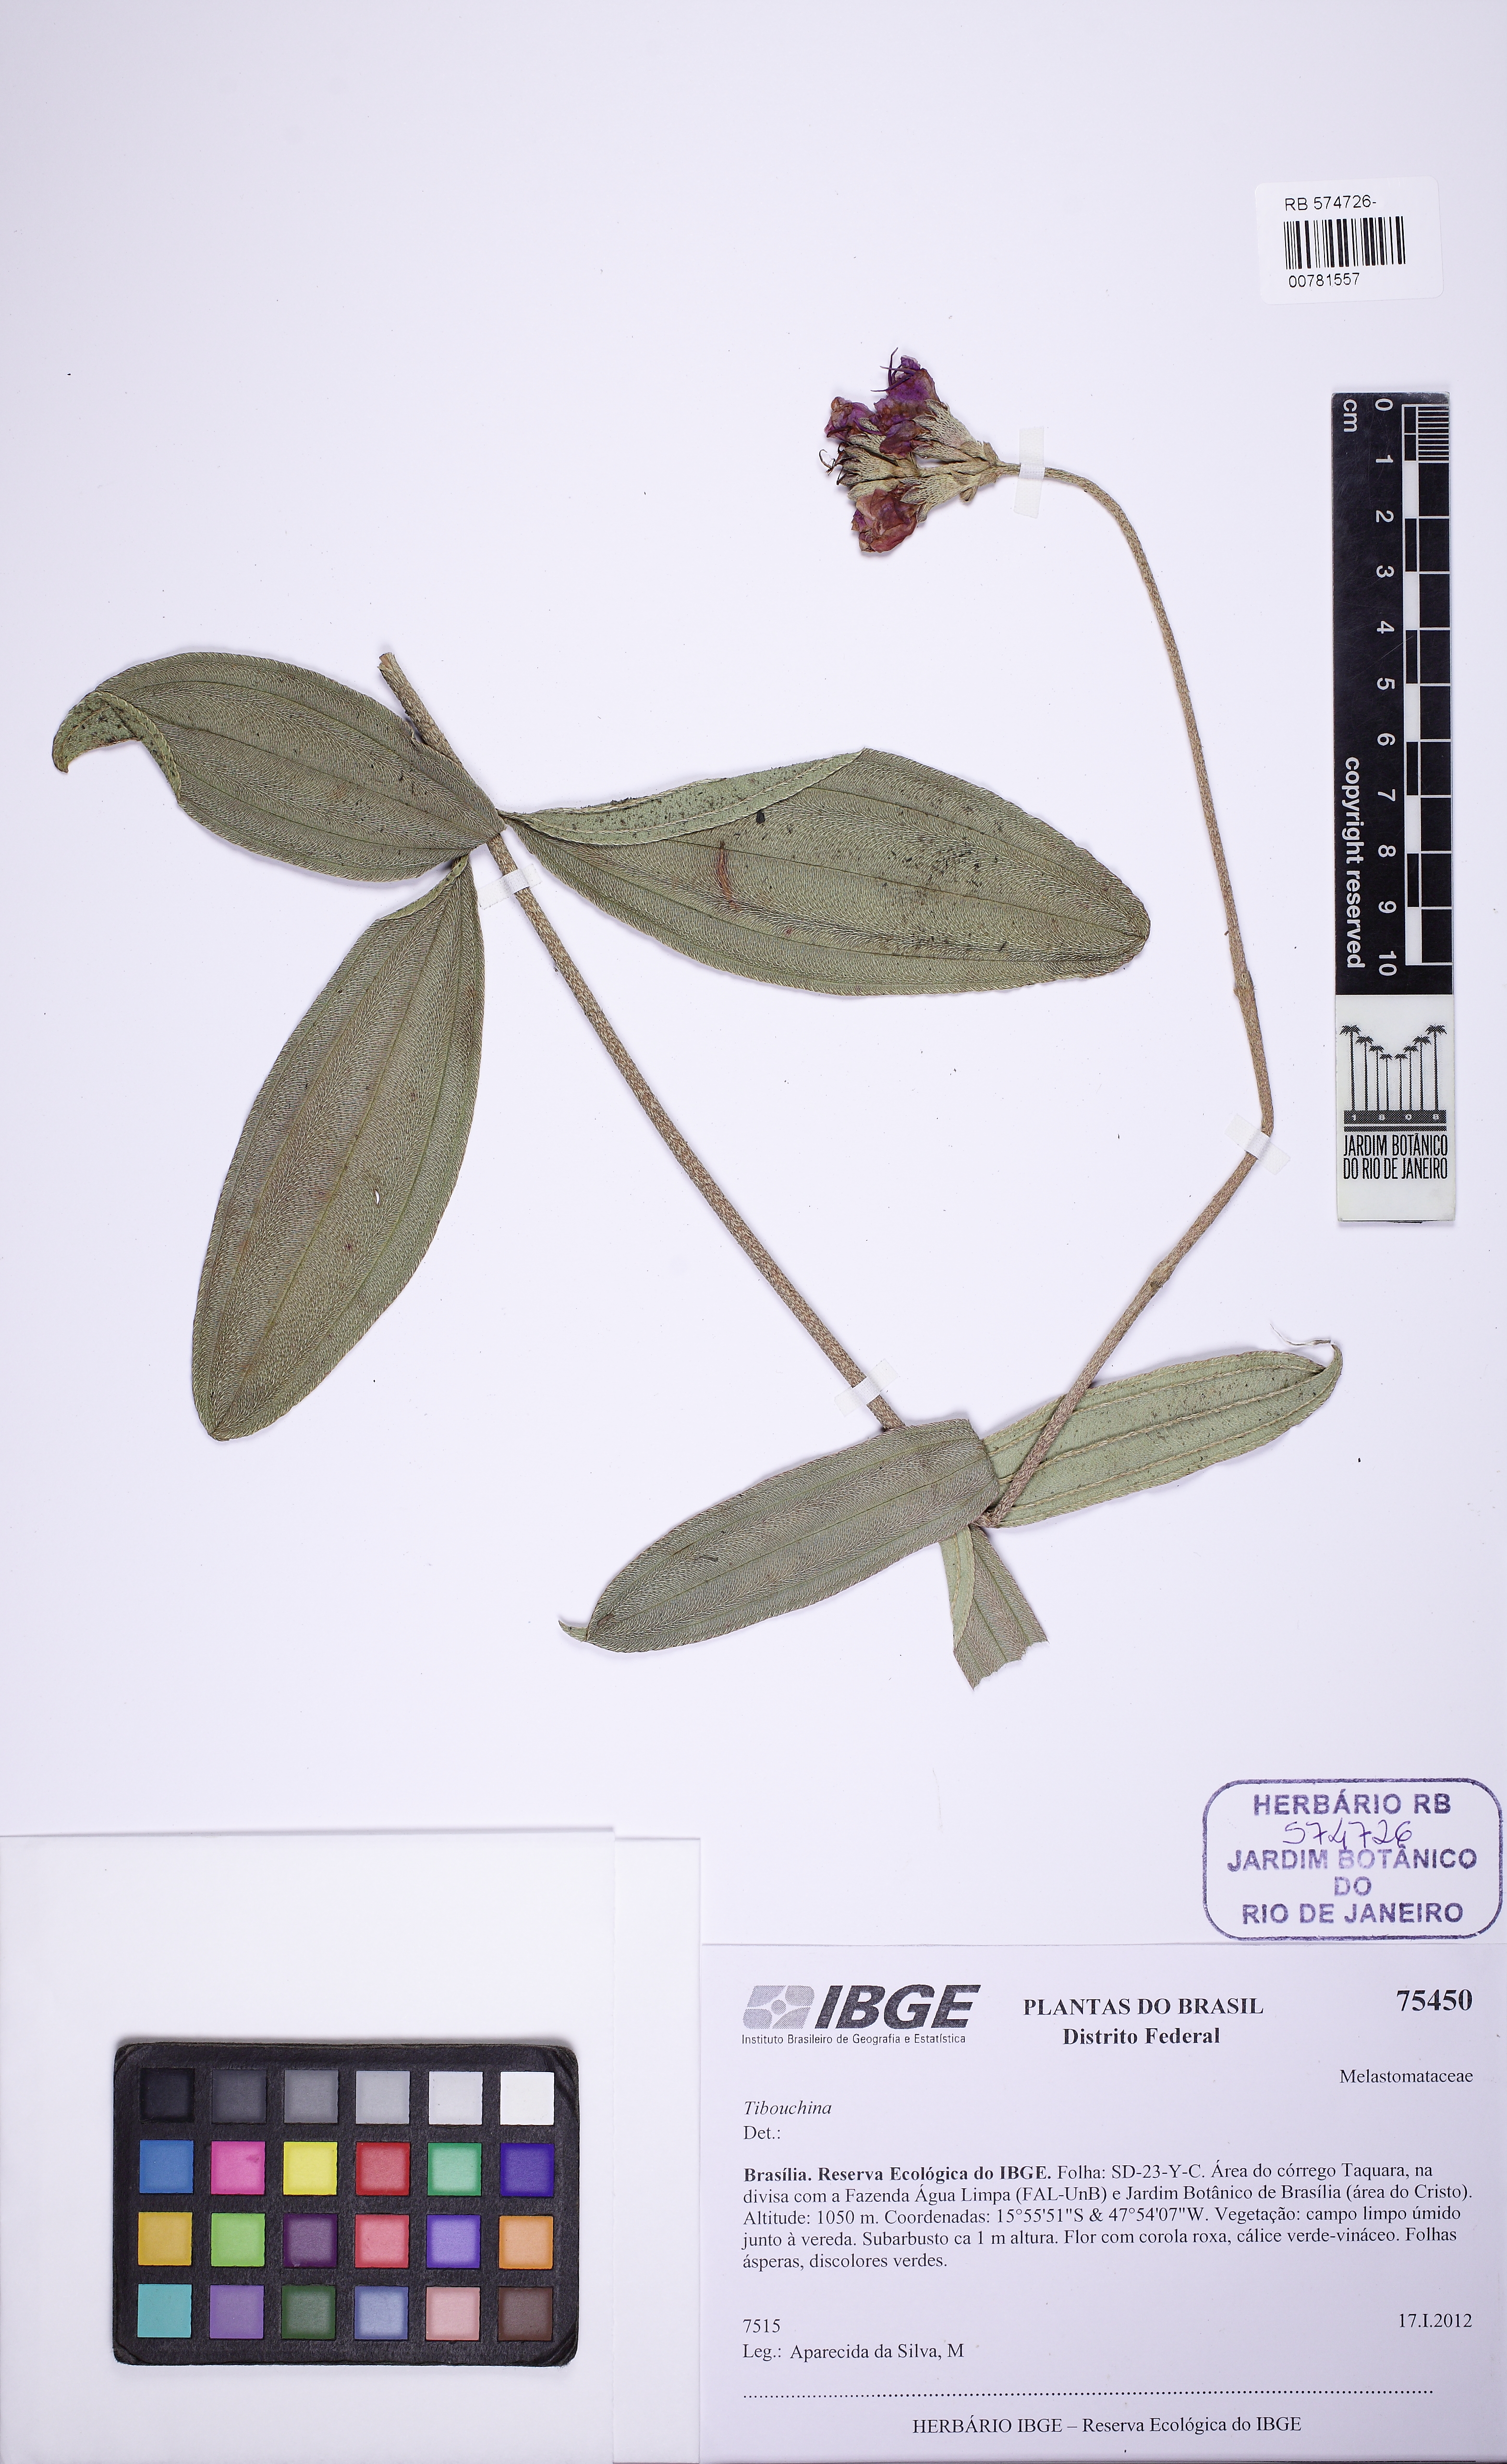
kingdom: Plantae
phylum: Tracheophyta
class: Magnoliopsida
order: Myrtales
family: Melastomataceae
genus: Pleroma
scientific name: Pleroma aegopogon
